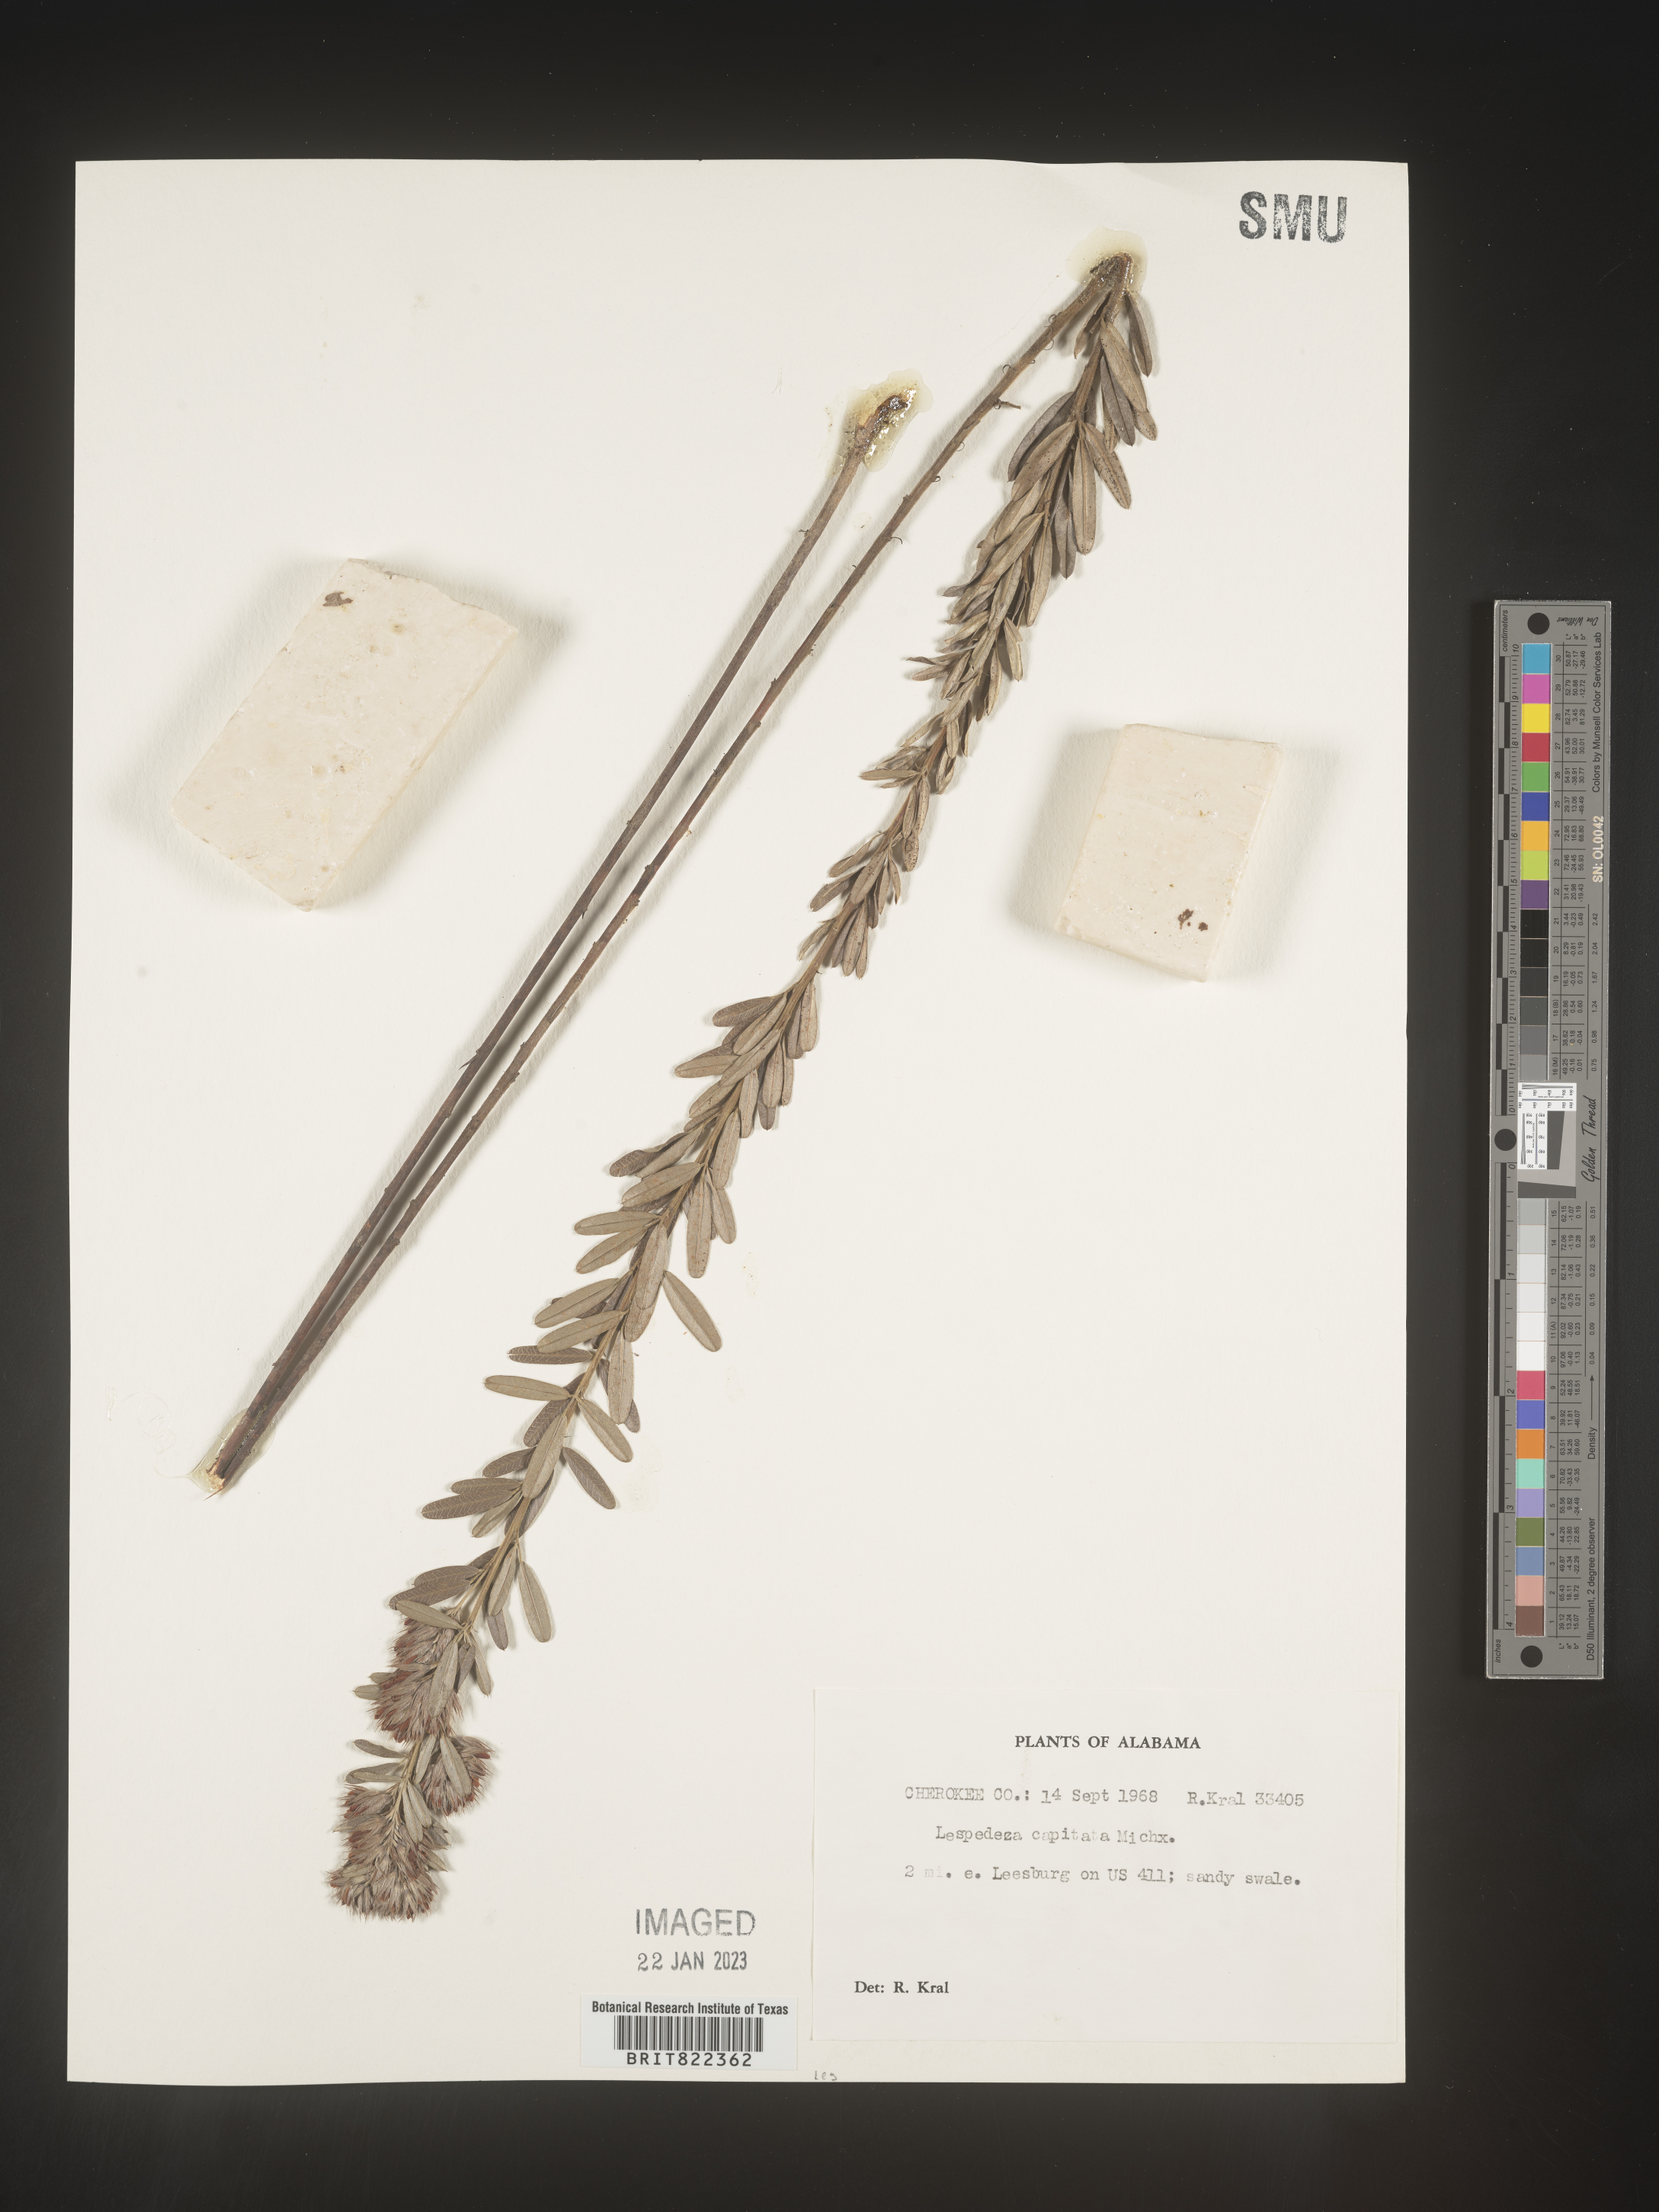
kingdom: Plantae
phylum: Tracheophyta
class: Magnoliopsida
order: Fabales
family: Fabaceae
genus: Lespedeza
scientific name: Lespedeza capitata
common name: Dusty clover
